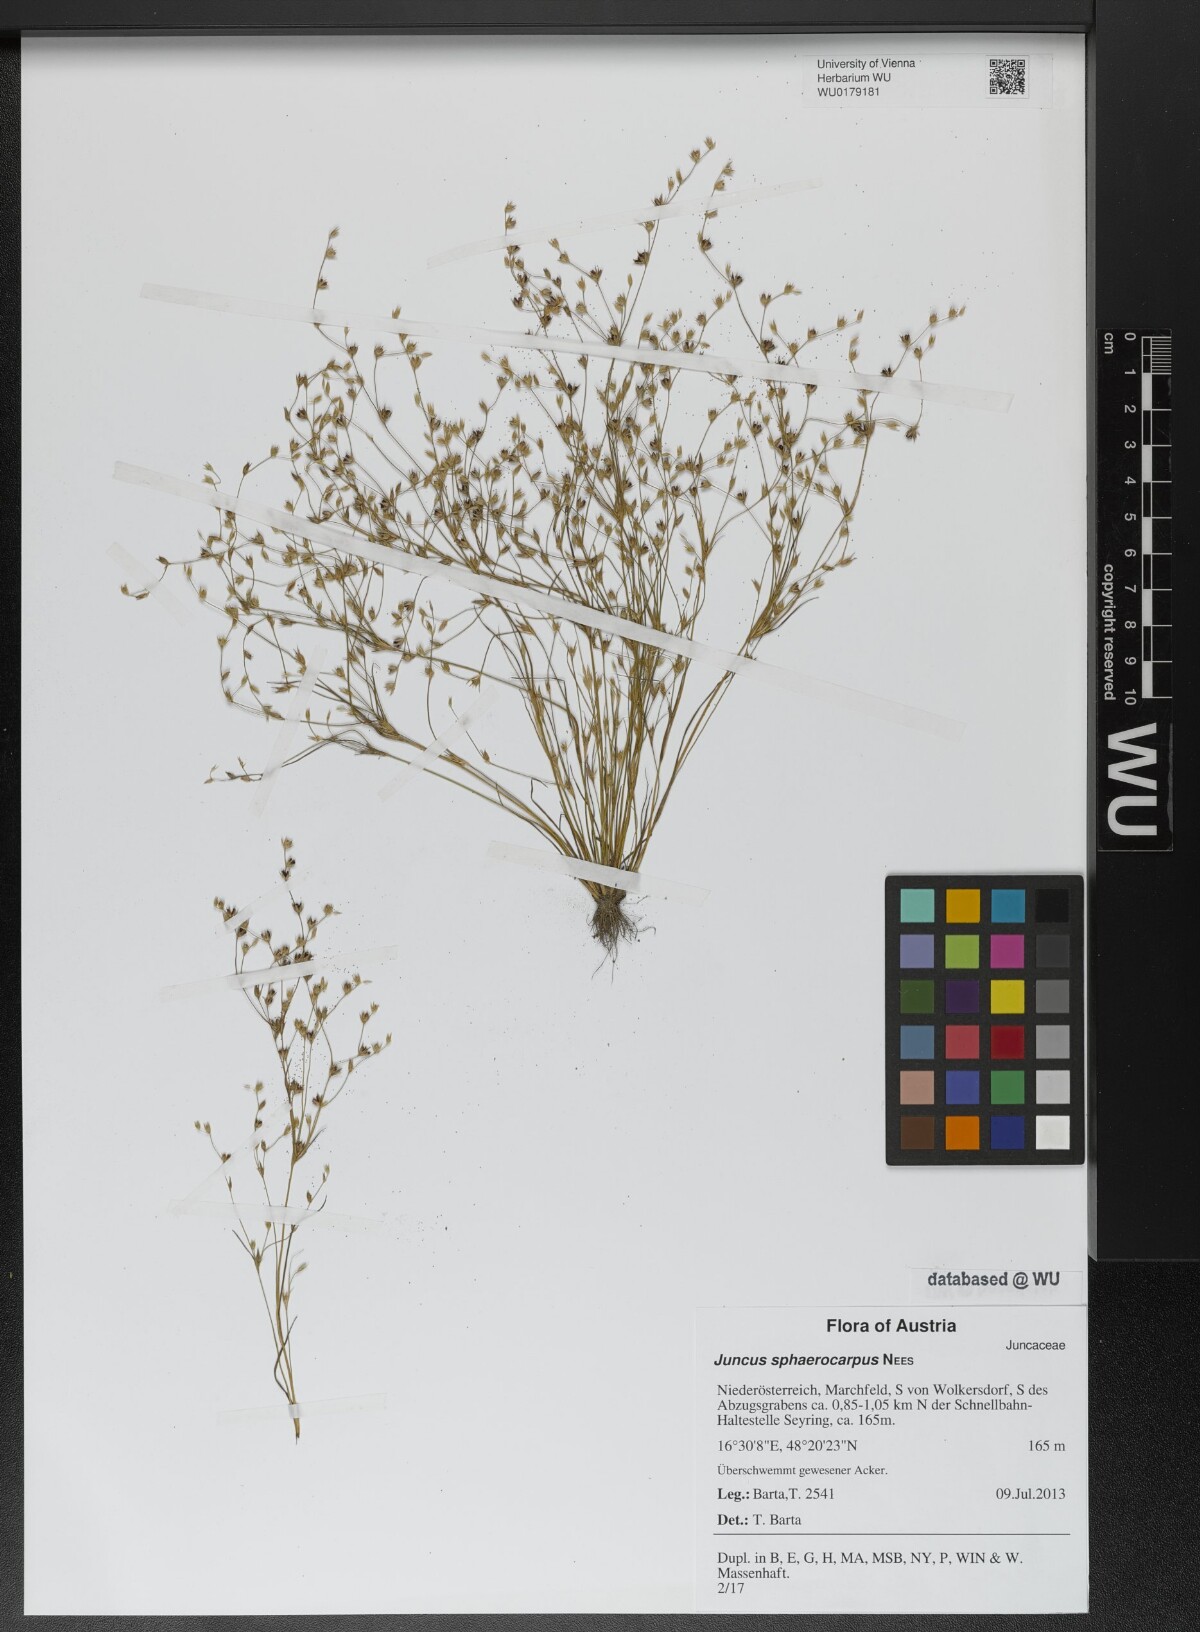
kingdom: Plantae
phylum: Tracheophyta
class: Liliopsida
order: Poales
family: Juncaceae
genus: Juncus
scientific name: Juncus sphaerocarpus
